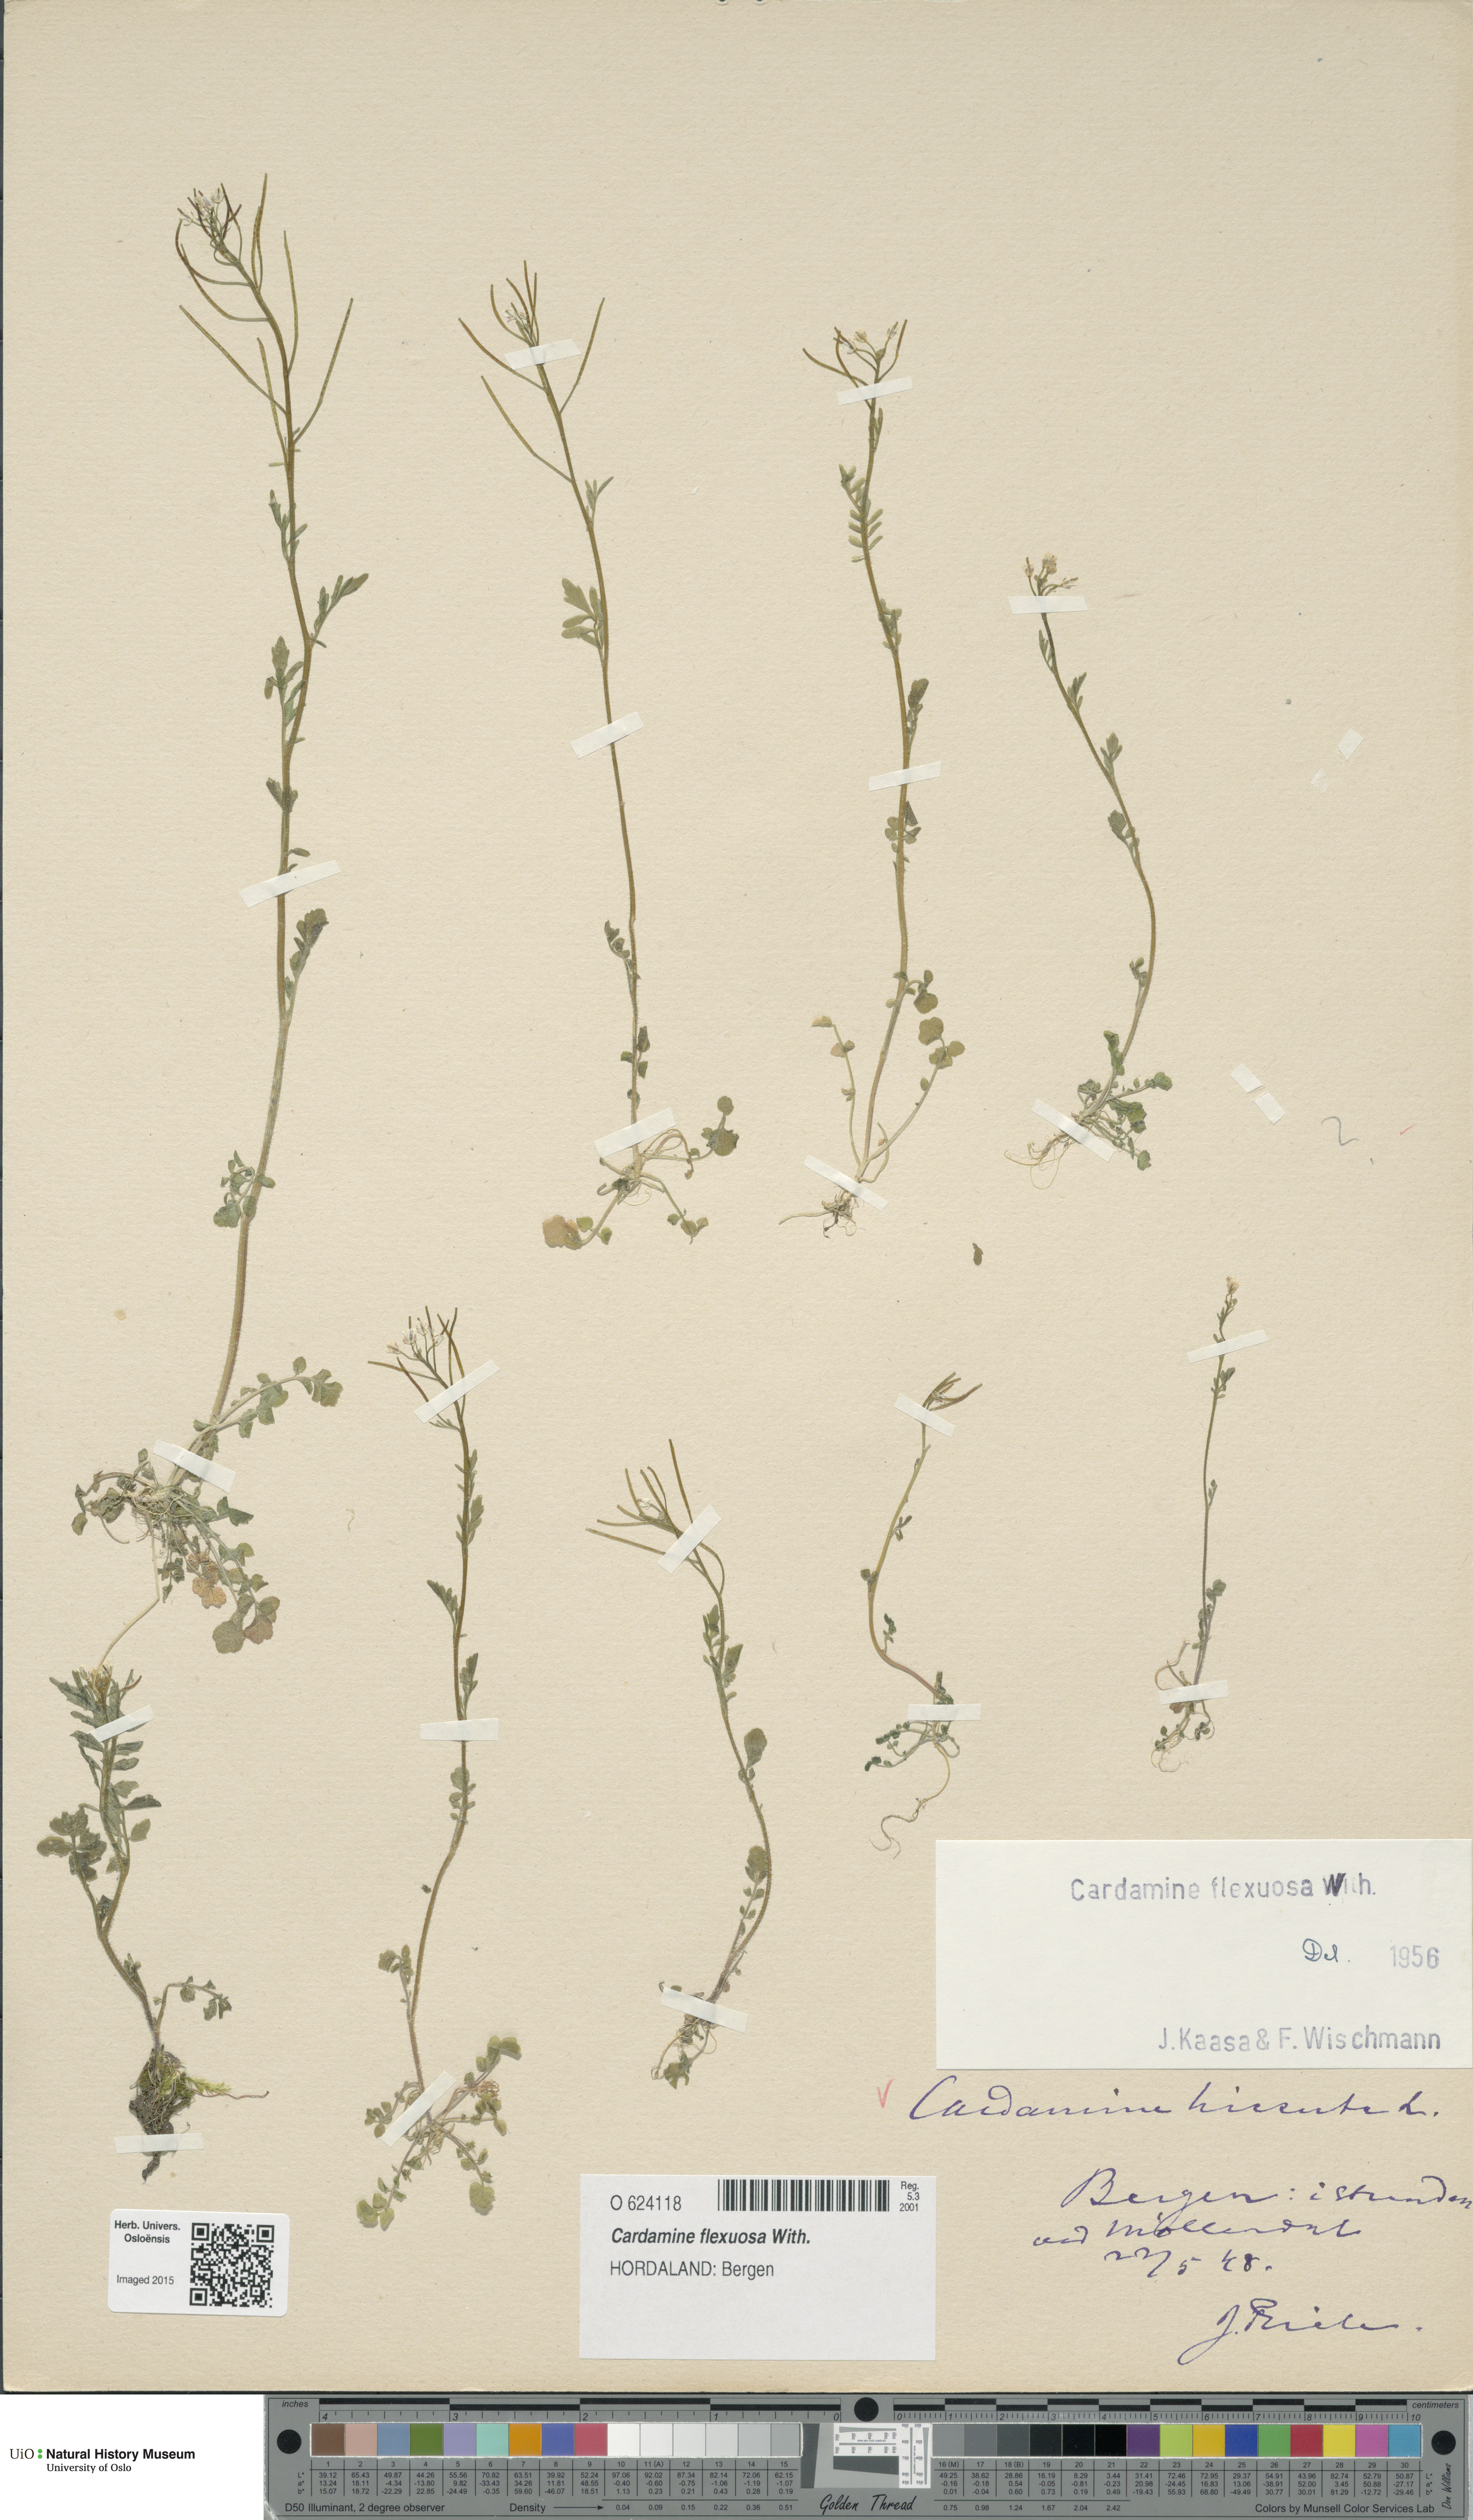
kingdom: Plantae
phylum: Tracheophyta
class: Magnoliopsida
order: Brassicales
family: Brassicaceae
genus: Cardamine
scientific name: Cardamine flexuosa
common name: Woodland bittercress
